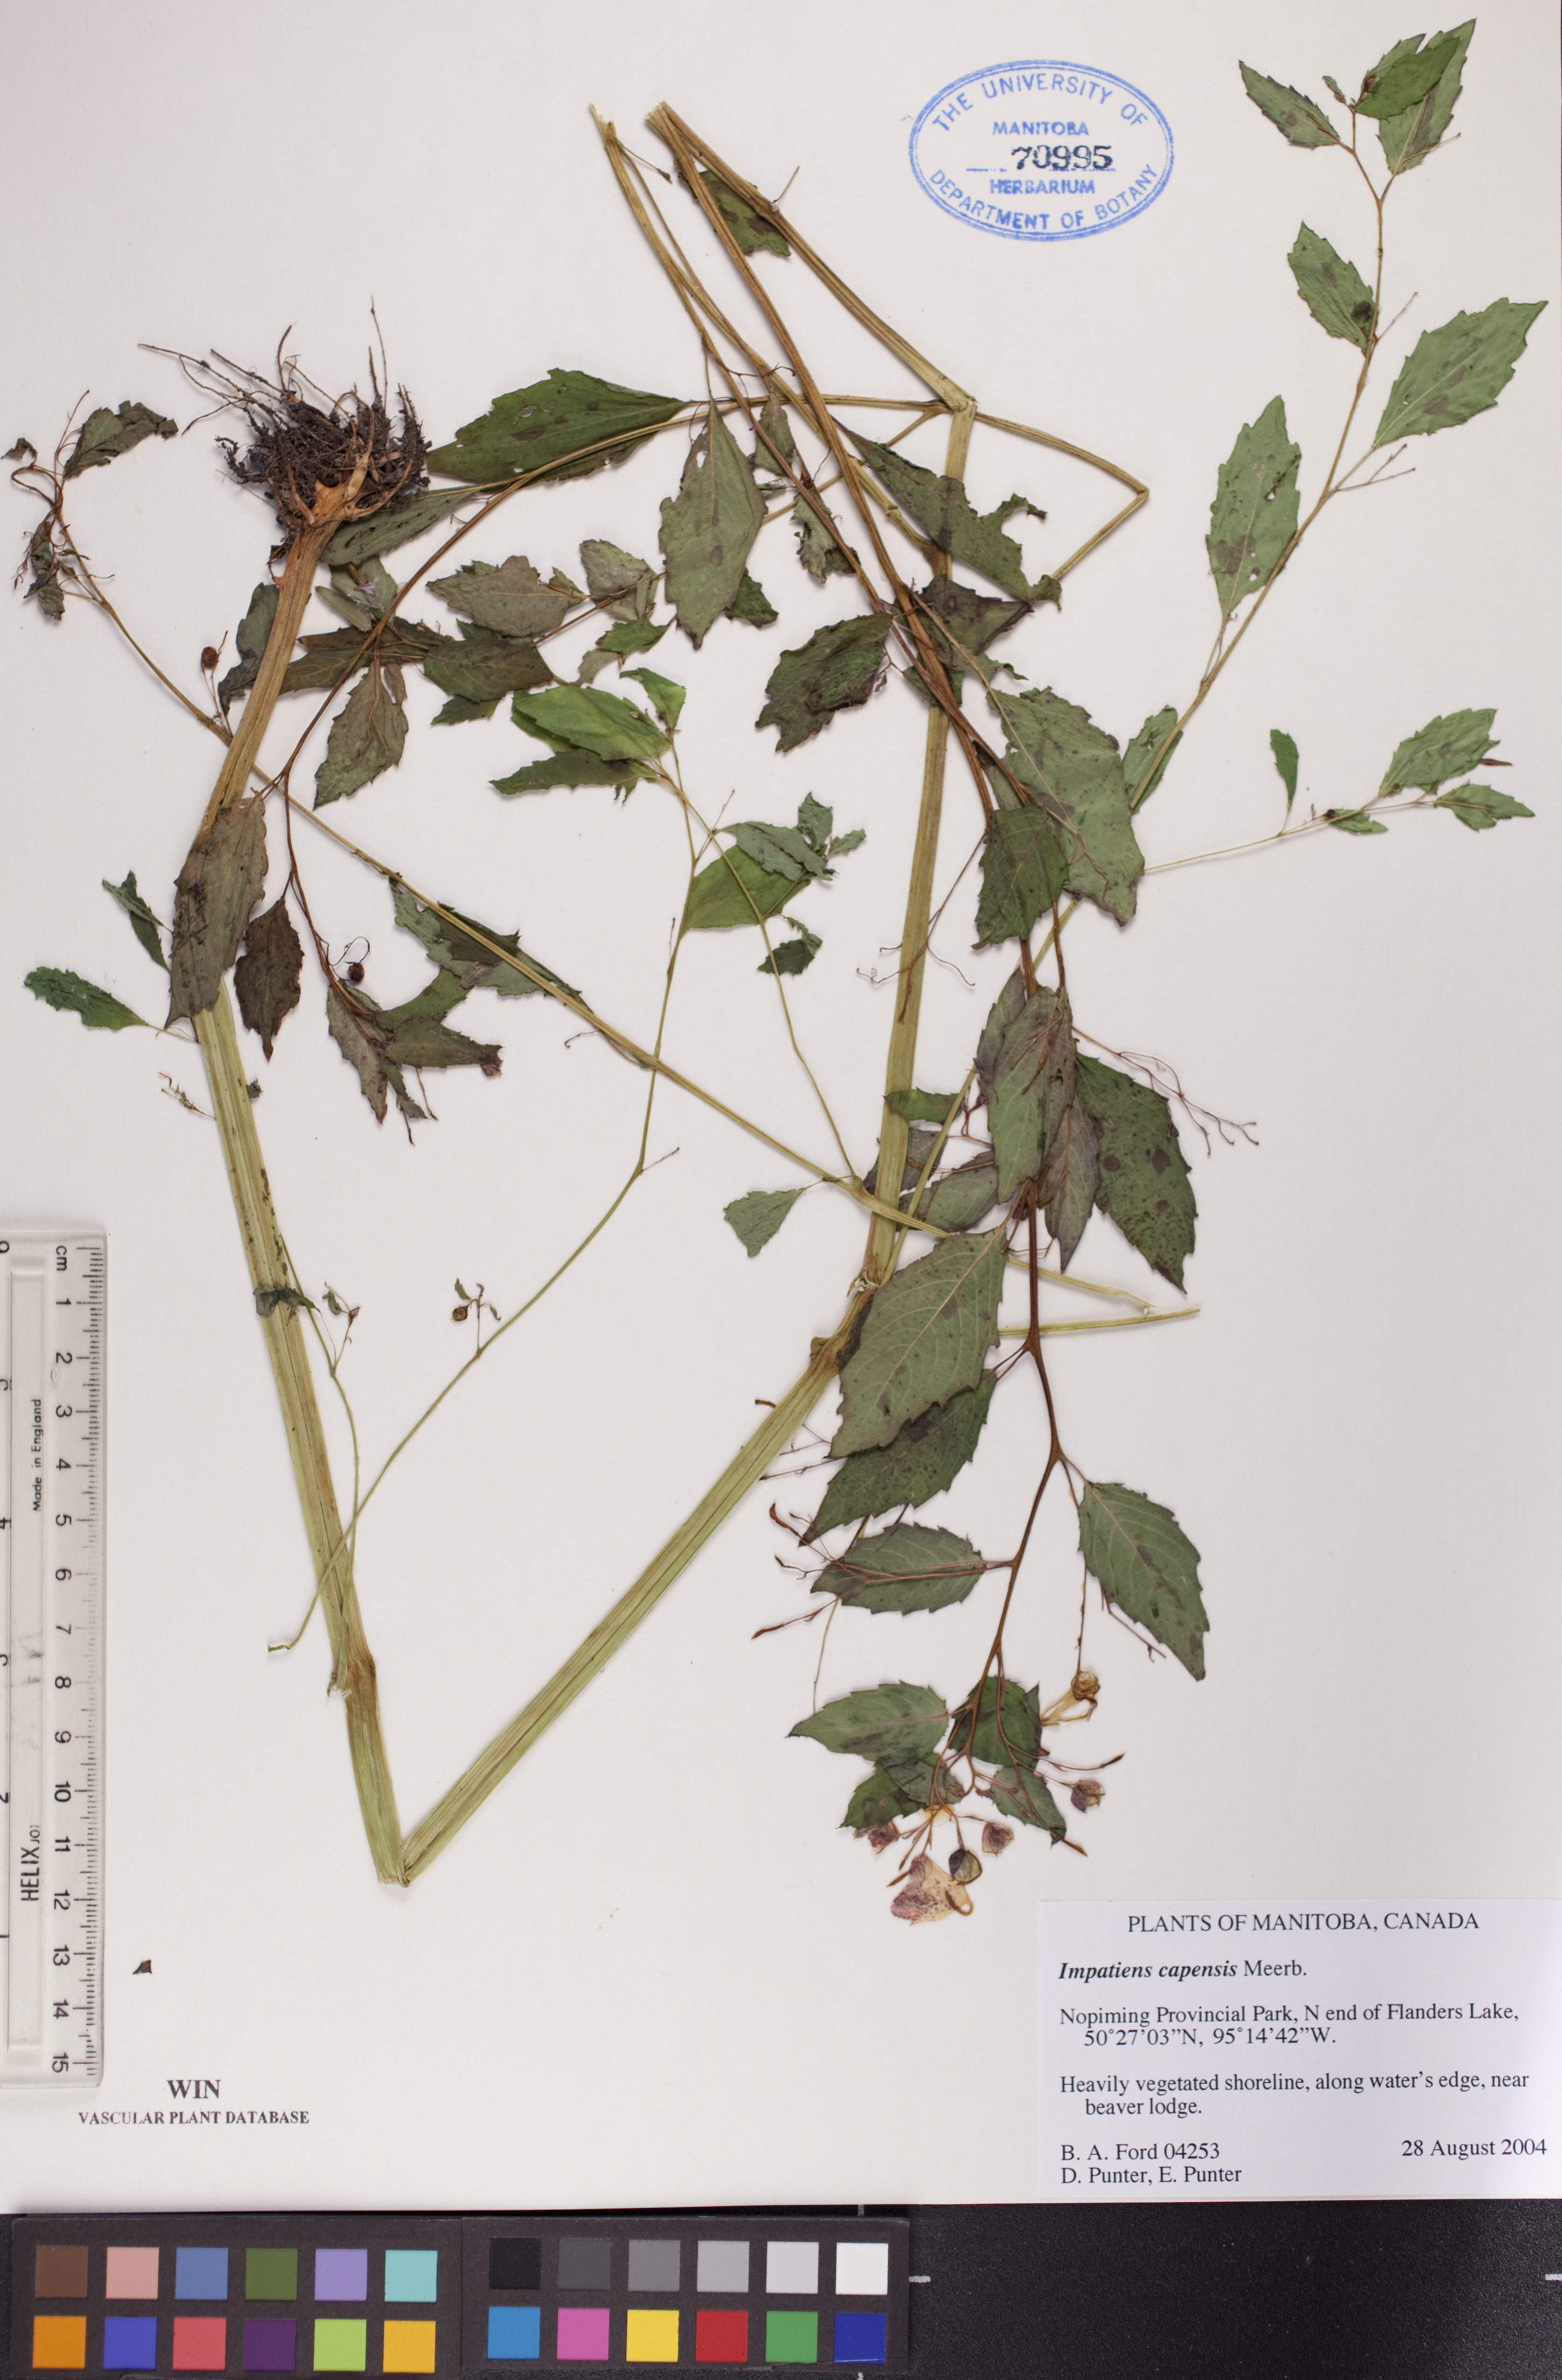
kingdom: Plantae
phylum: Tracheophyta
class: Magnoliopsida
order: Ericales
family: Balsaminaceae
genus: Impatiens
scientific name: Impatiens capensis
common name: Orange balsam
